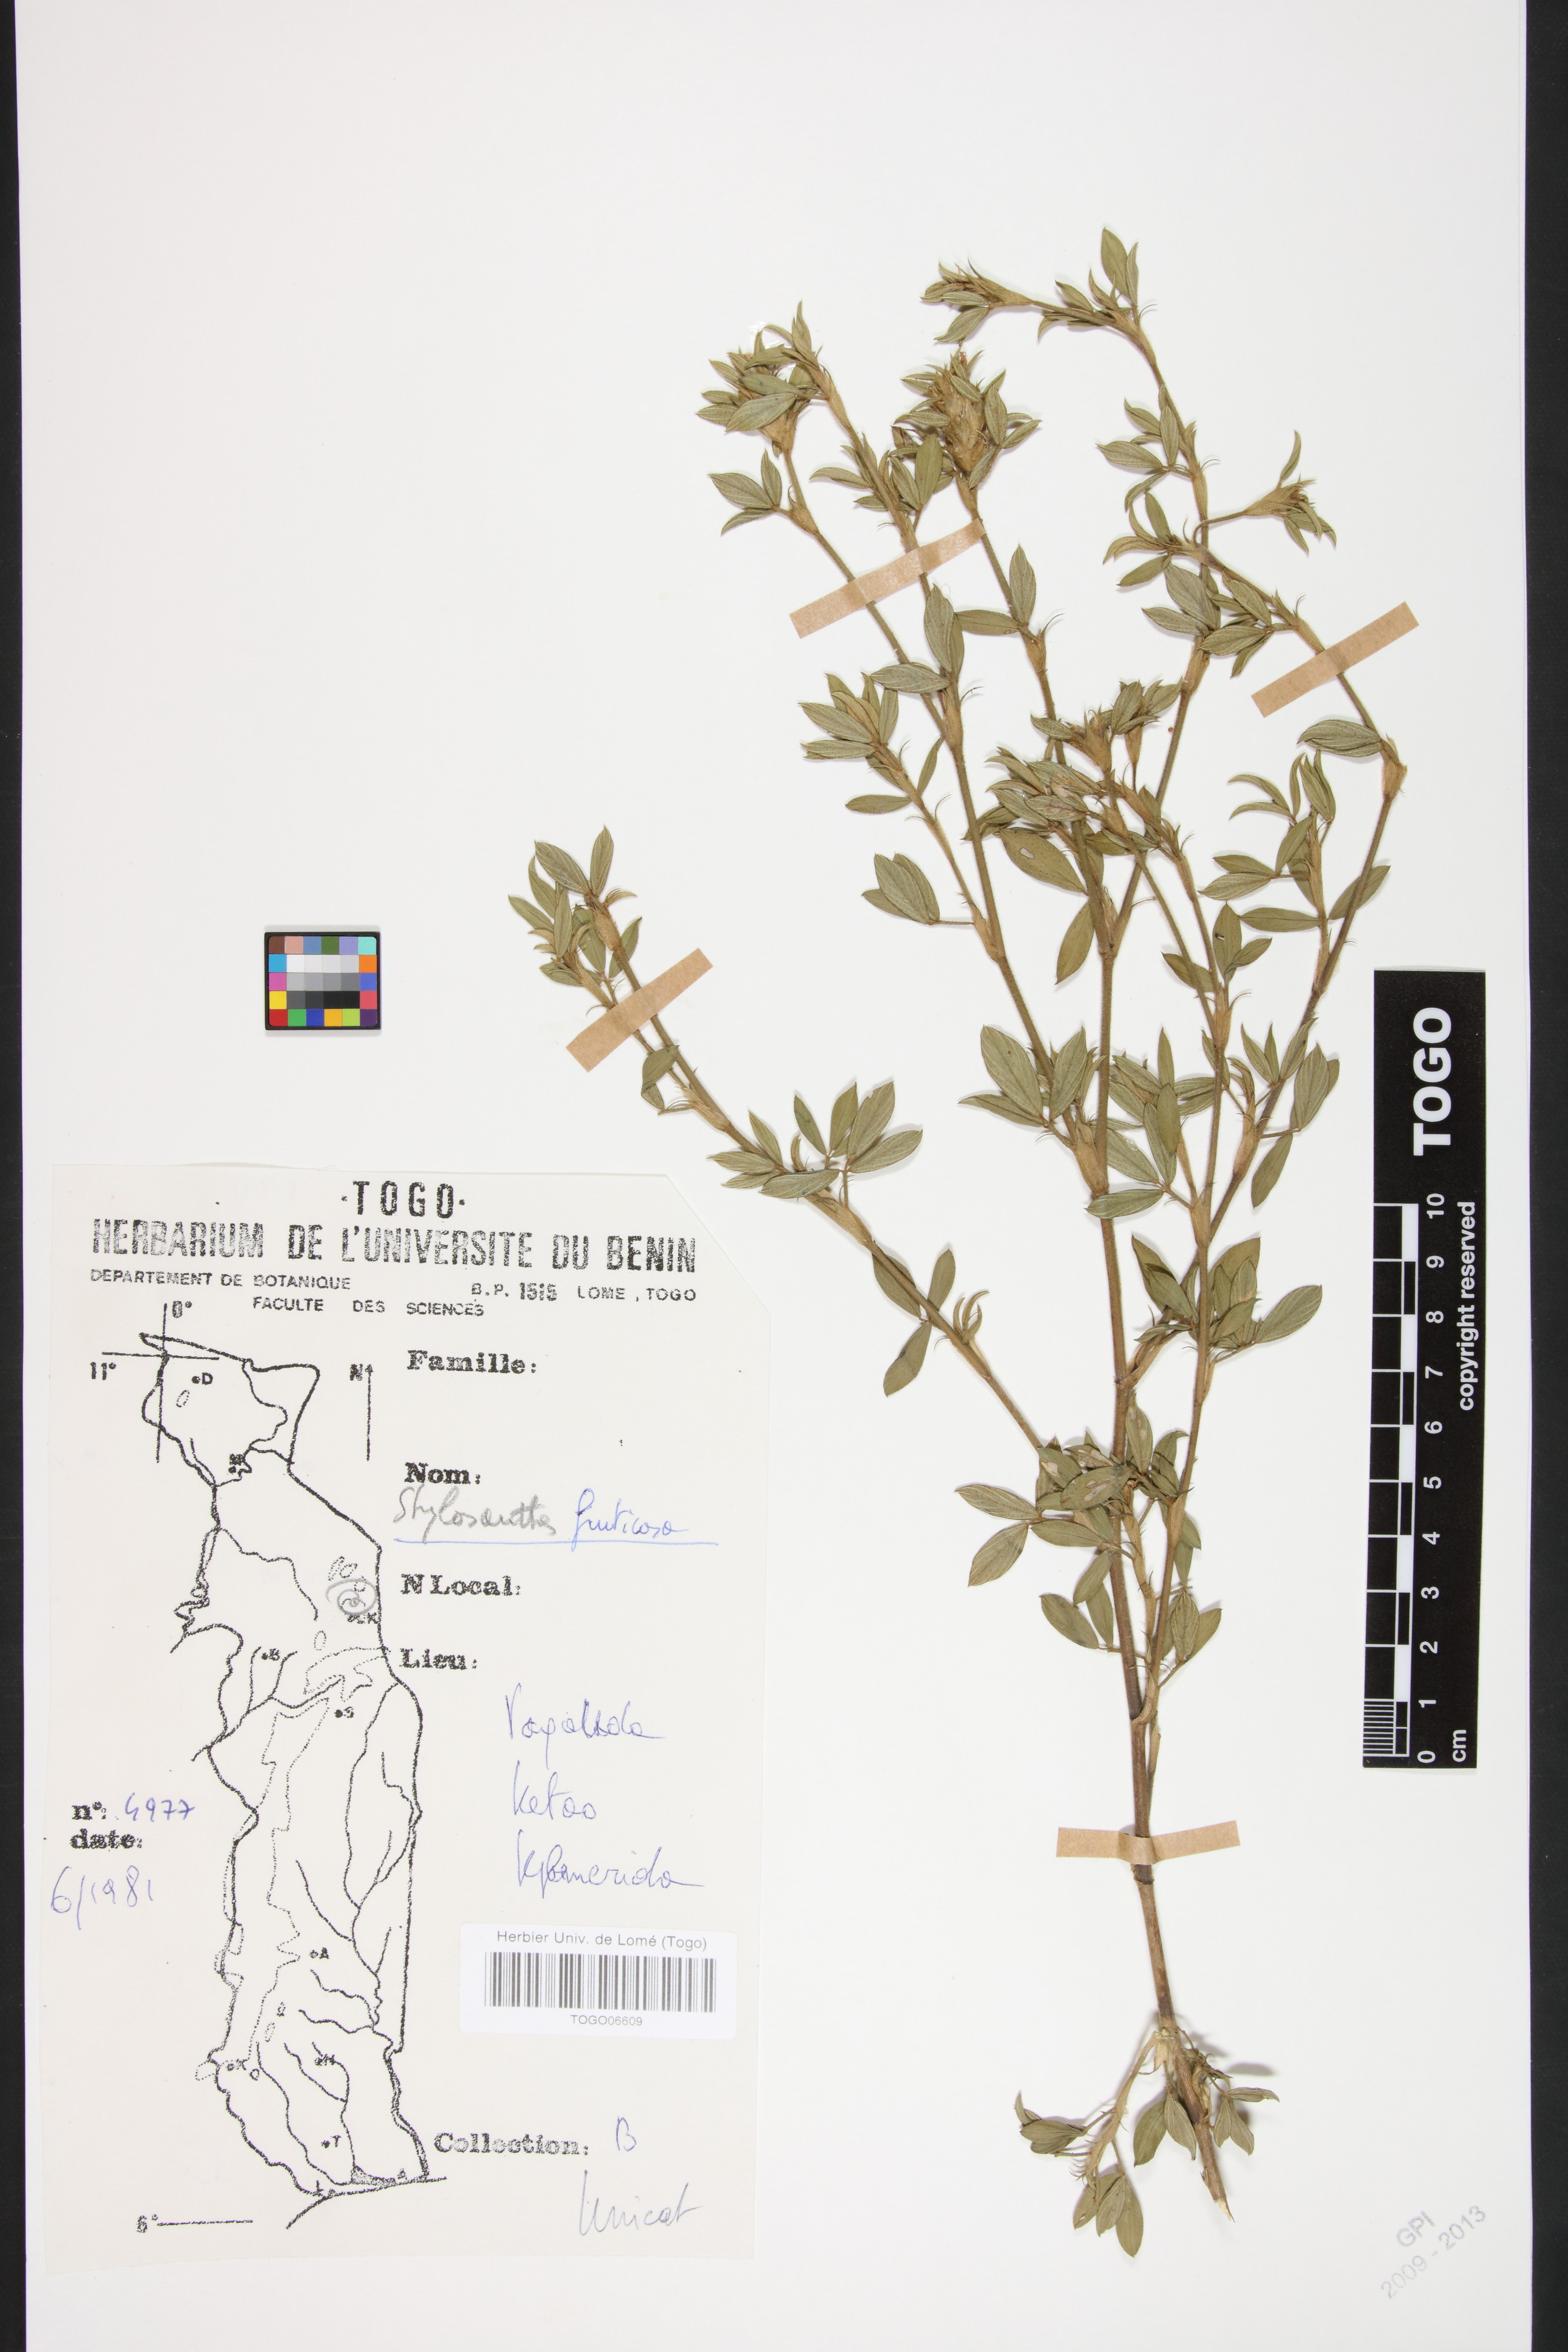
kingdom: Plantae
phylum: Tracheophyta
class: Magnoliopsida
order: Fabales
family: Fabaceae
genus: Stylosanthes
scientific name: Stylosanthes fruticosa
